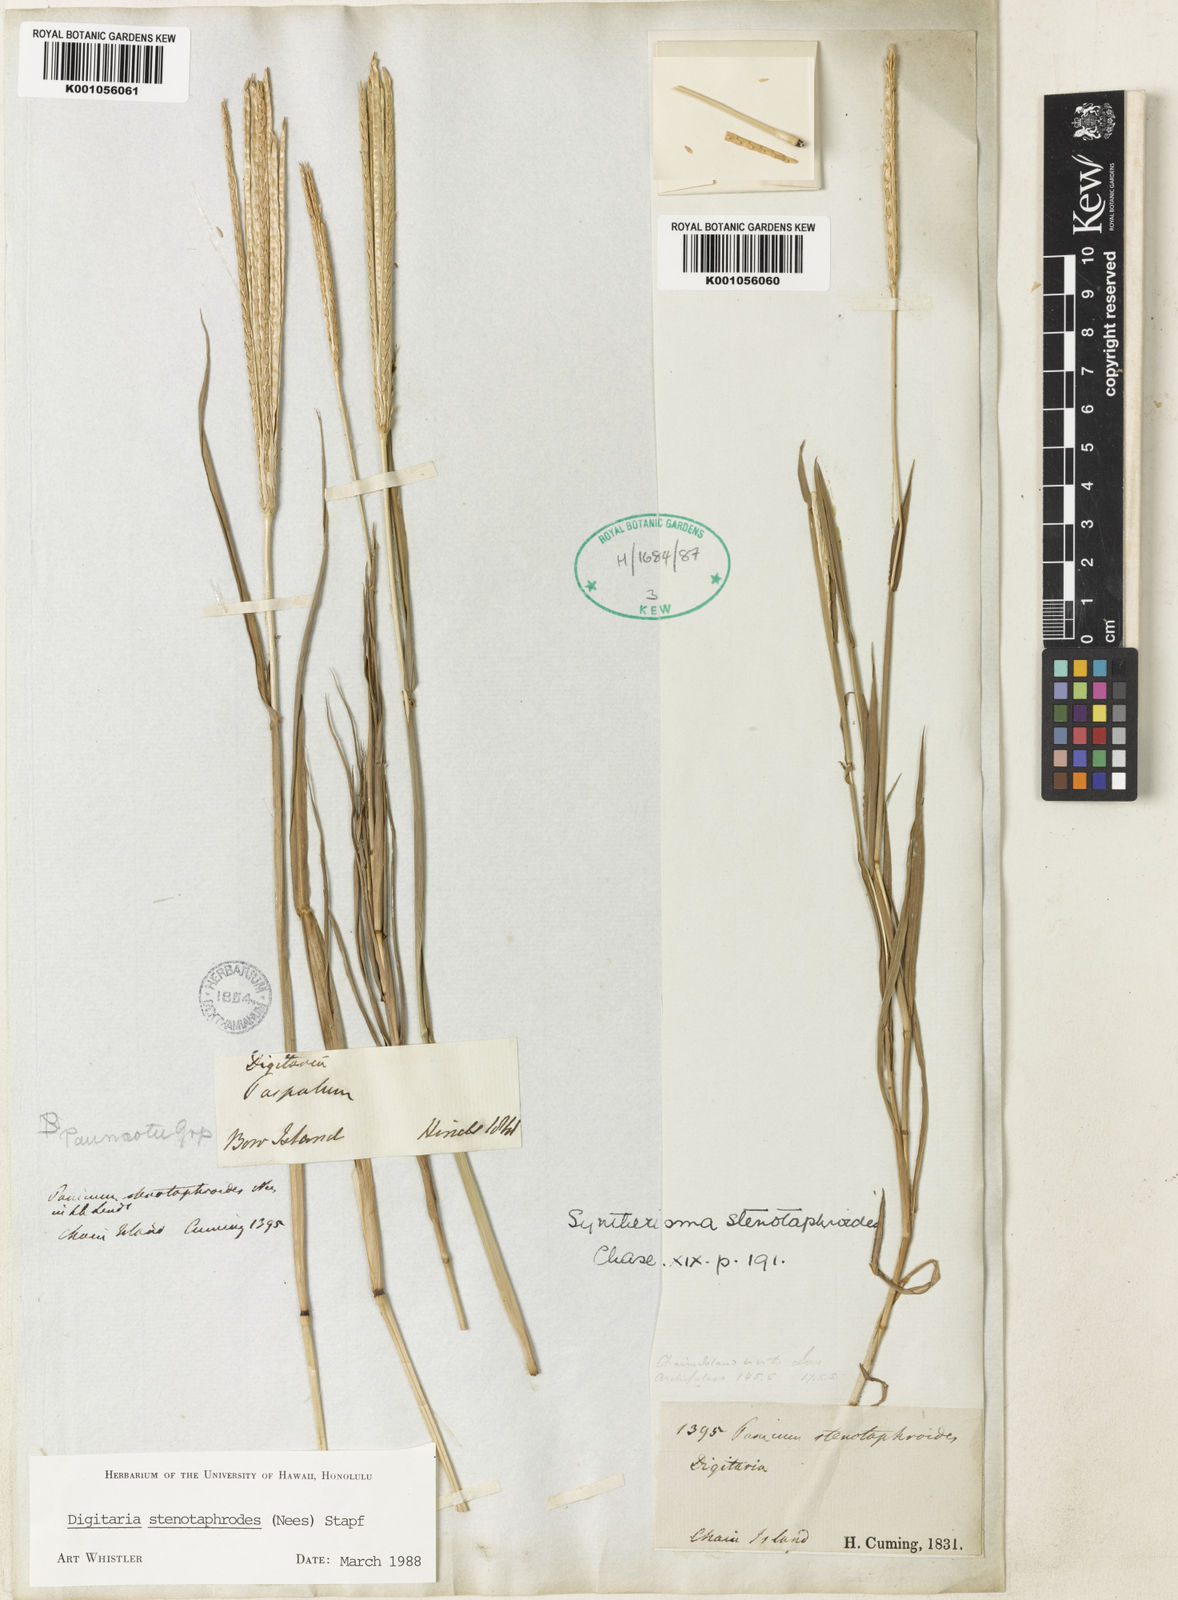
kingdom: Plantae
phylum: Tracheophyta
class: Liliopsida
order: Poales
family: Poaceae
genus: Digitaria
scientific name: Digitaria stenotaphrodes
